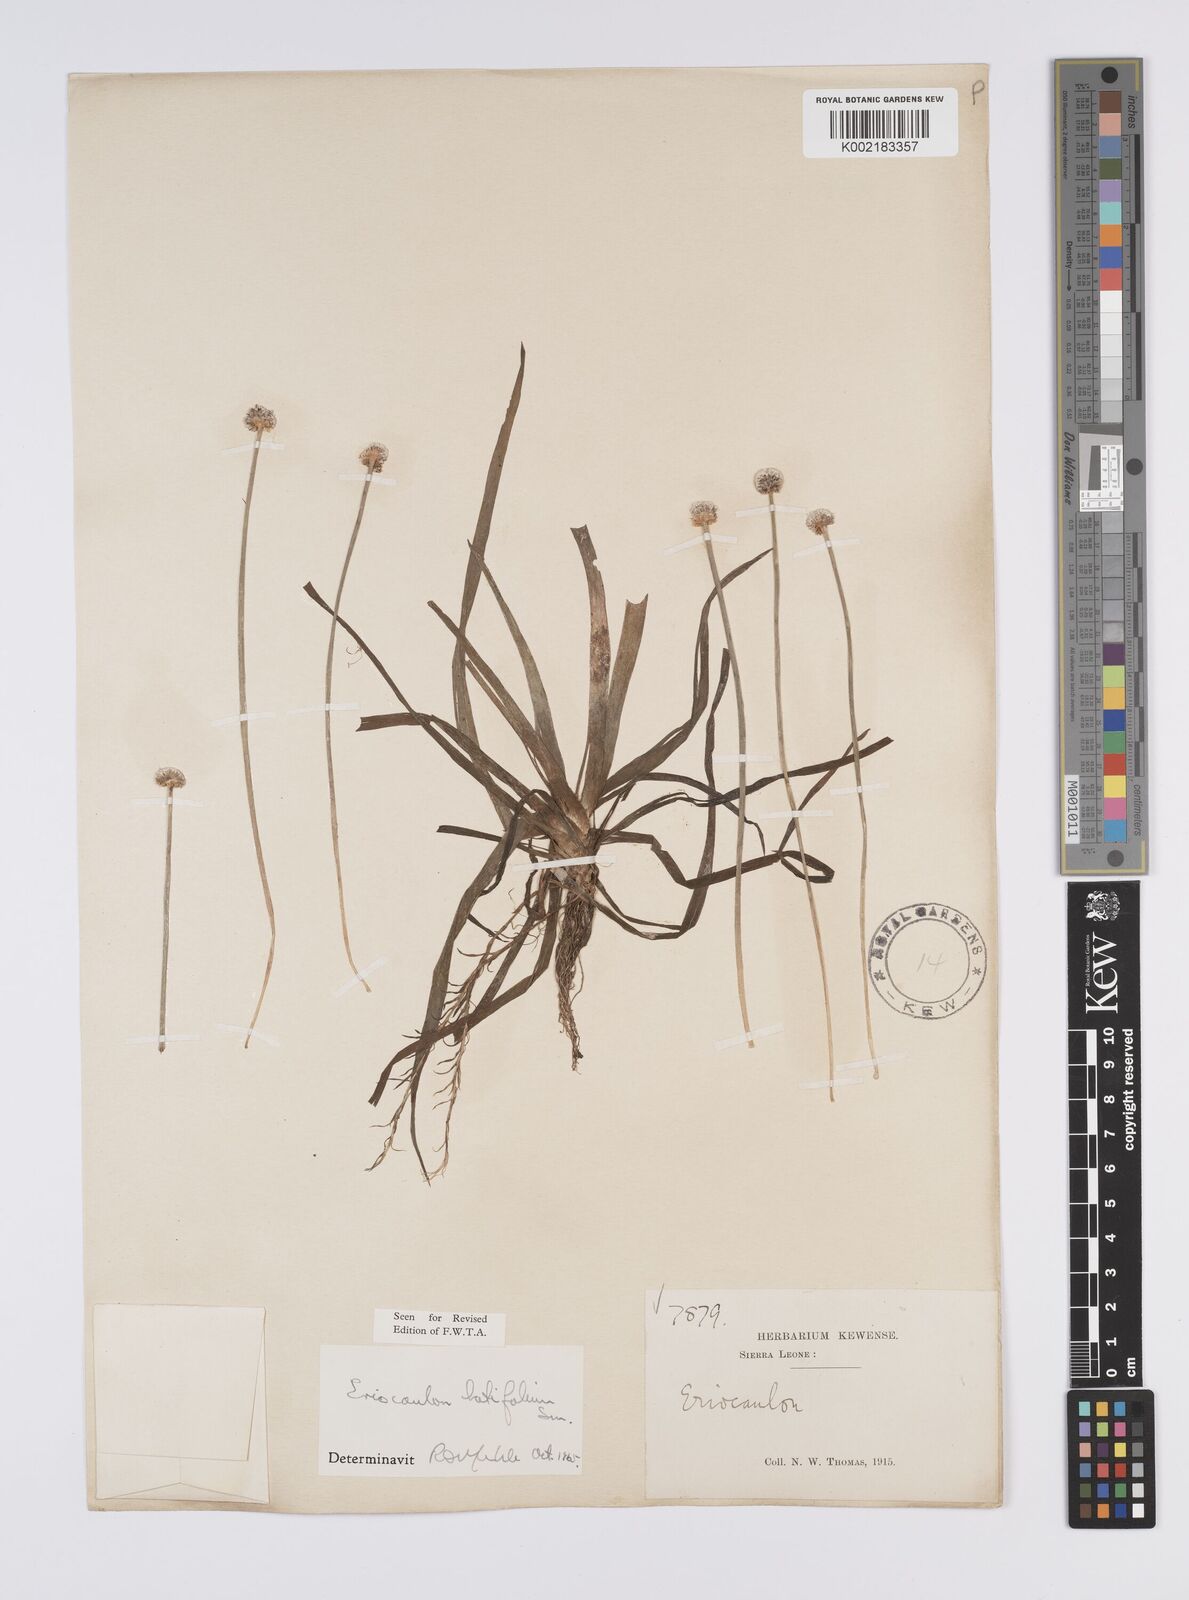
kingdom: Plantae
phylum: Tracheophyta
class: Liliopsida
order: Poales
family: Eriocaulaceae
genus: Eriocaulon
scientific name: Eriocaulon latifolium
